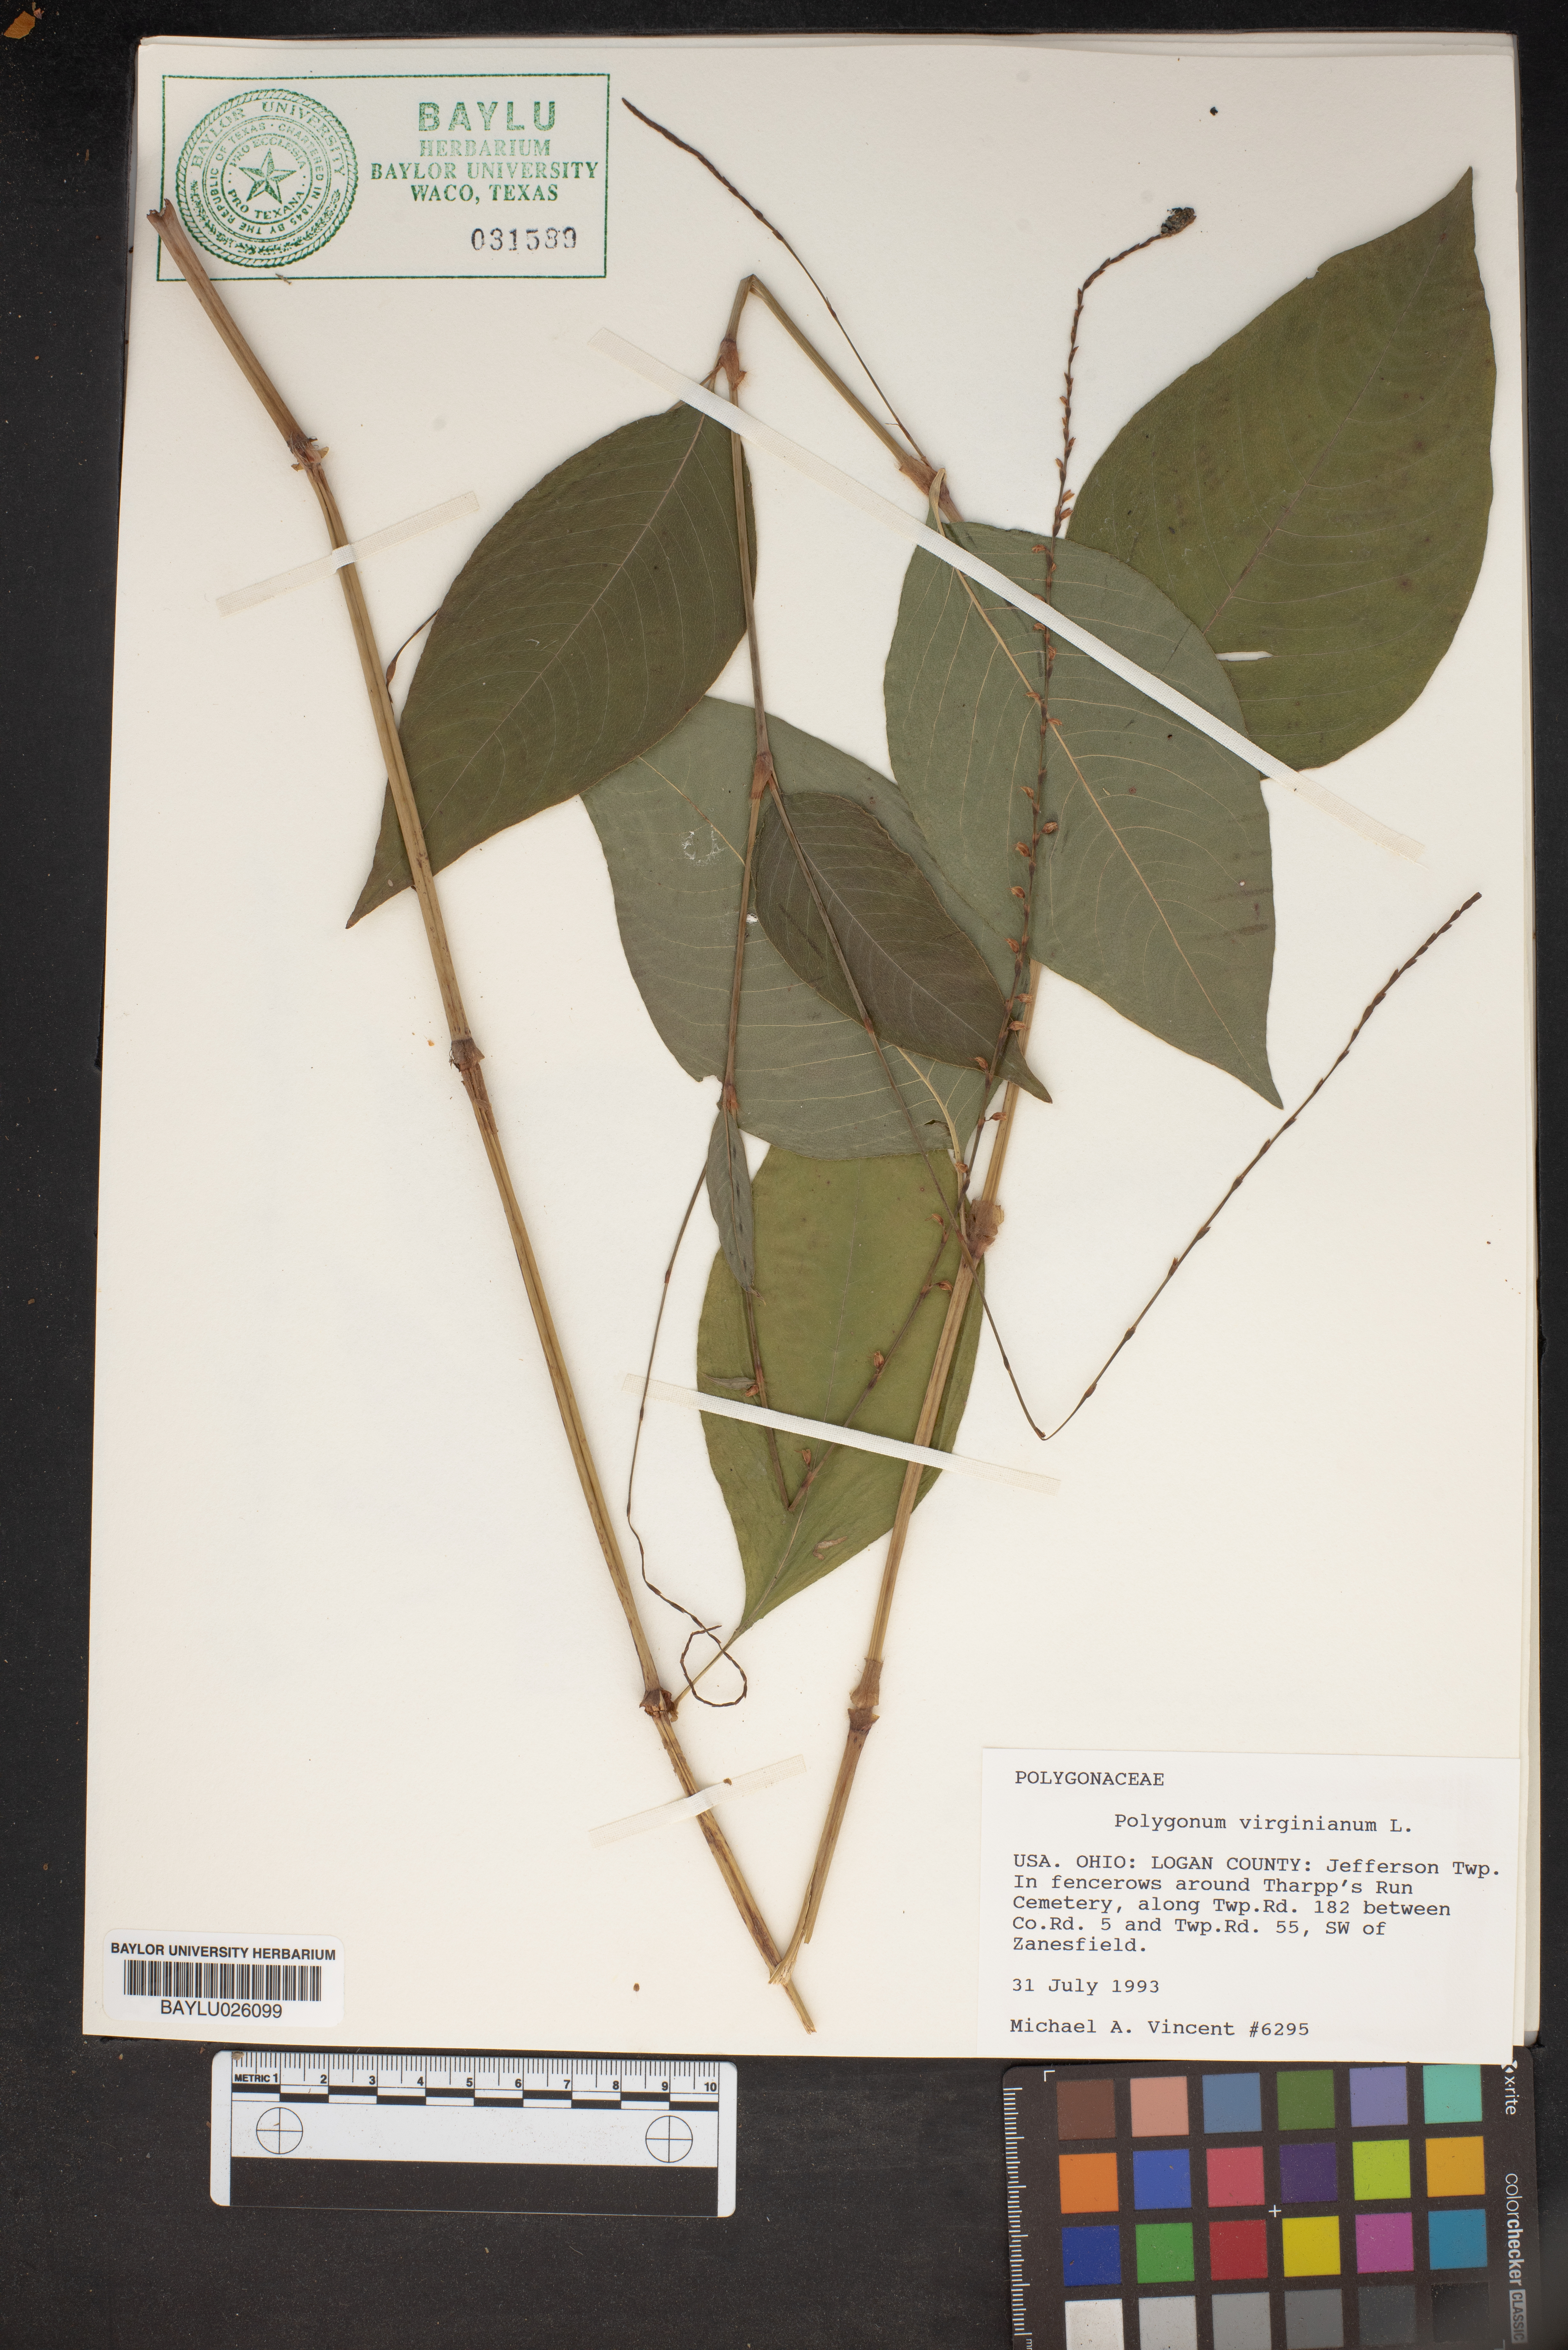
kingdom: Plantae
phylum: Tracheophyta
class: Magnoliopsida
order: Caryophyllales
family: Polygonaceae
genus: Persicaria
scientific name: Persicaria virginiana
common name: Jumpseed
